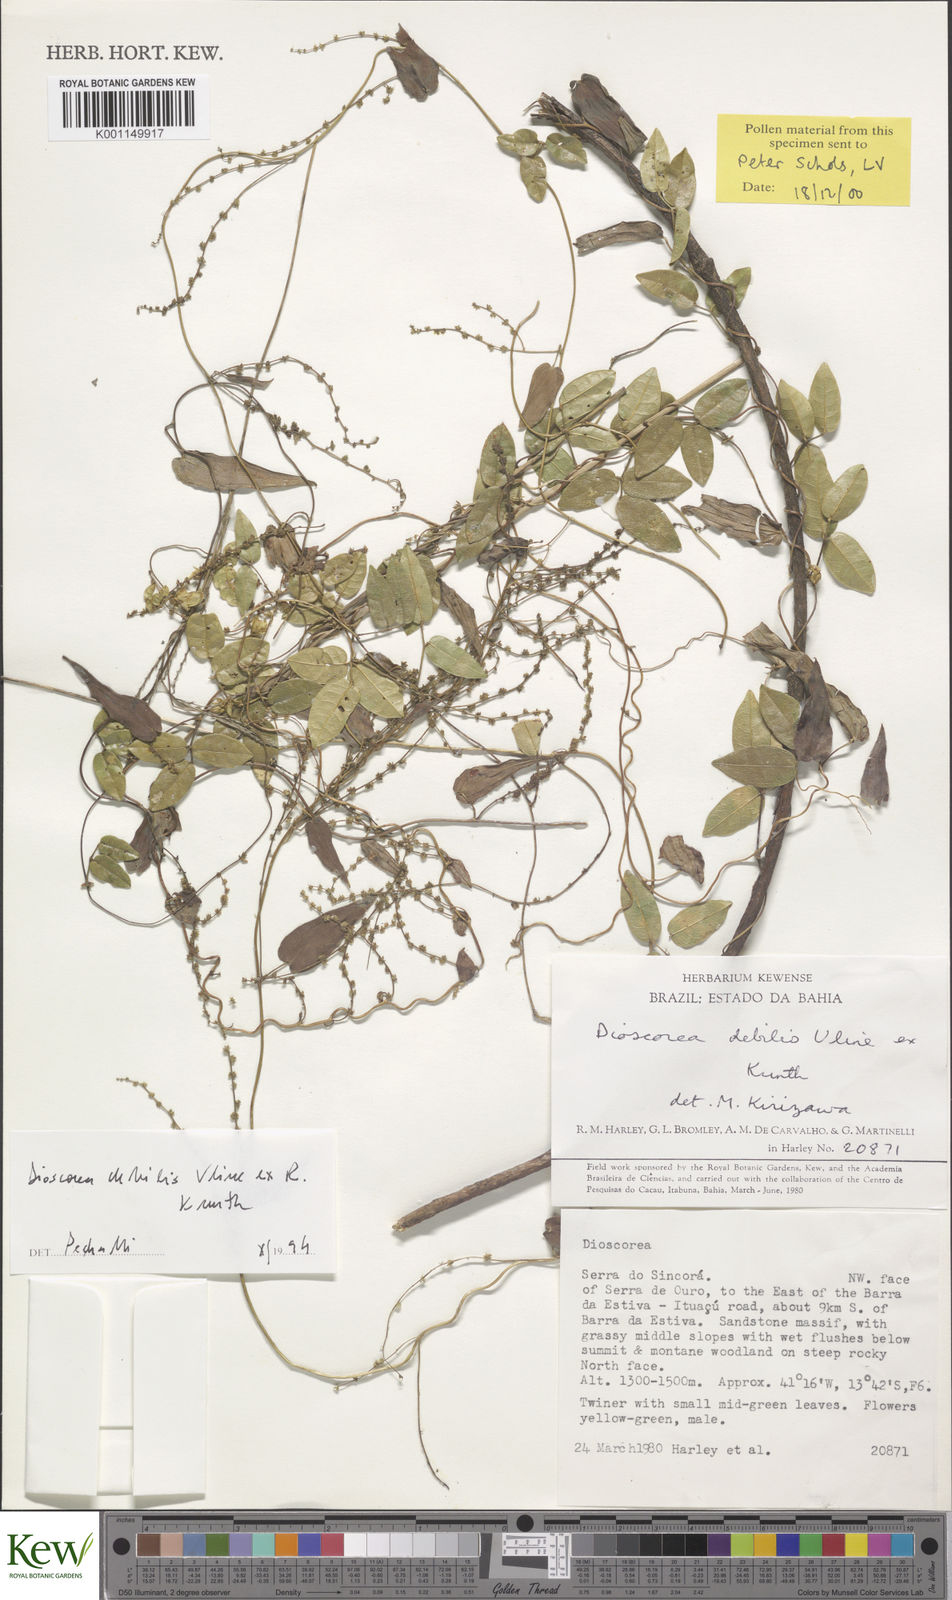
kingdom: Plantae
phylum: Tracheophyta
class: Liliopsida
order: Dioscoreales
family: Dioscoreaceae
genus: Dioscorea
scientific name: Dioscorea debilis
